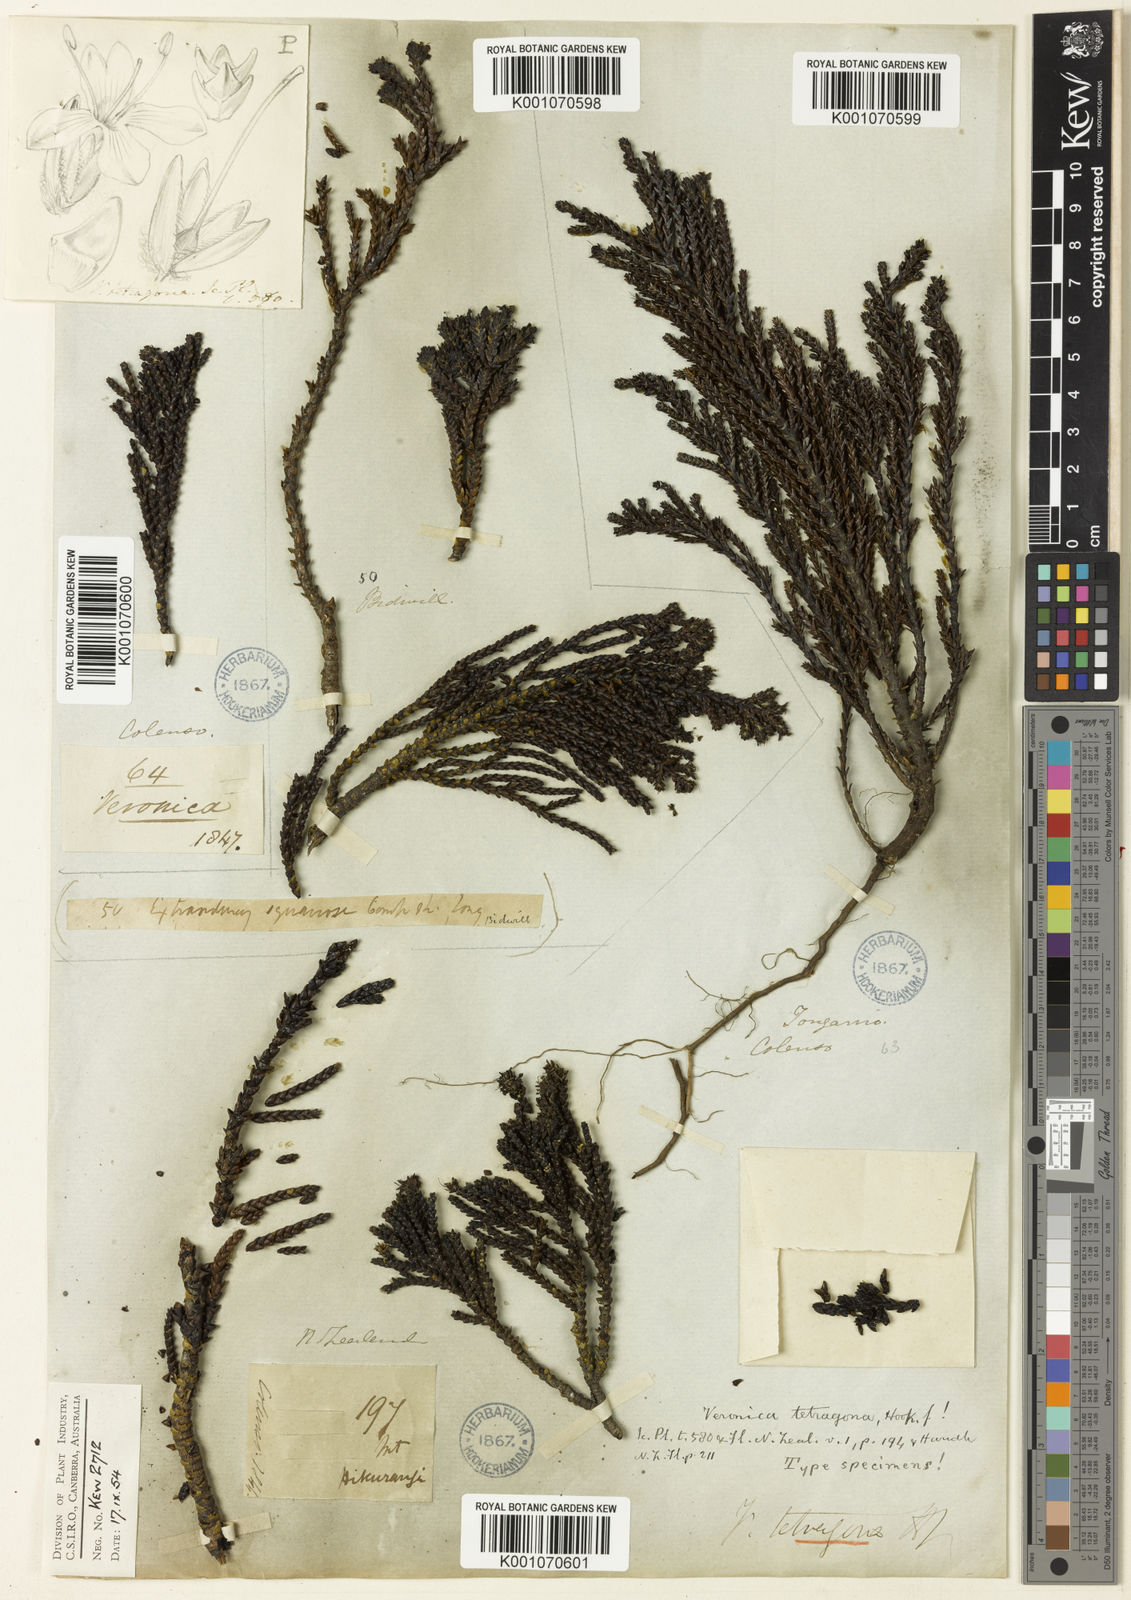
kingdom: Plantae
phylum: Tracheophyta
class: Magnoliopsida
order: Lamiales
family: Plantaginaceae
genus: Veronica
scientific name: Veronica tetragona
